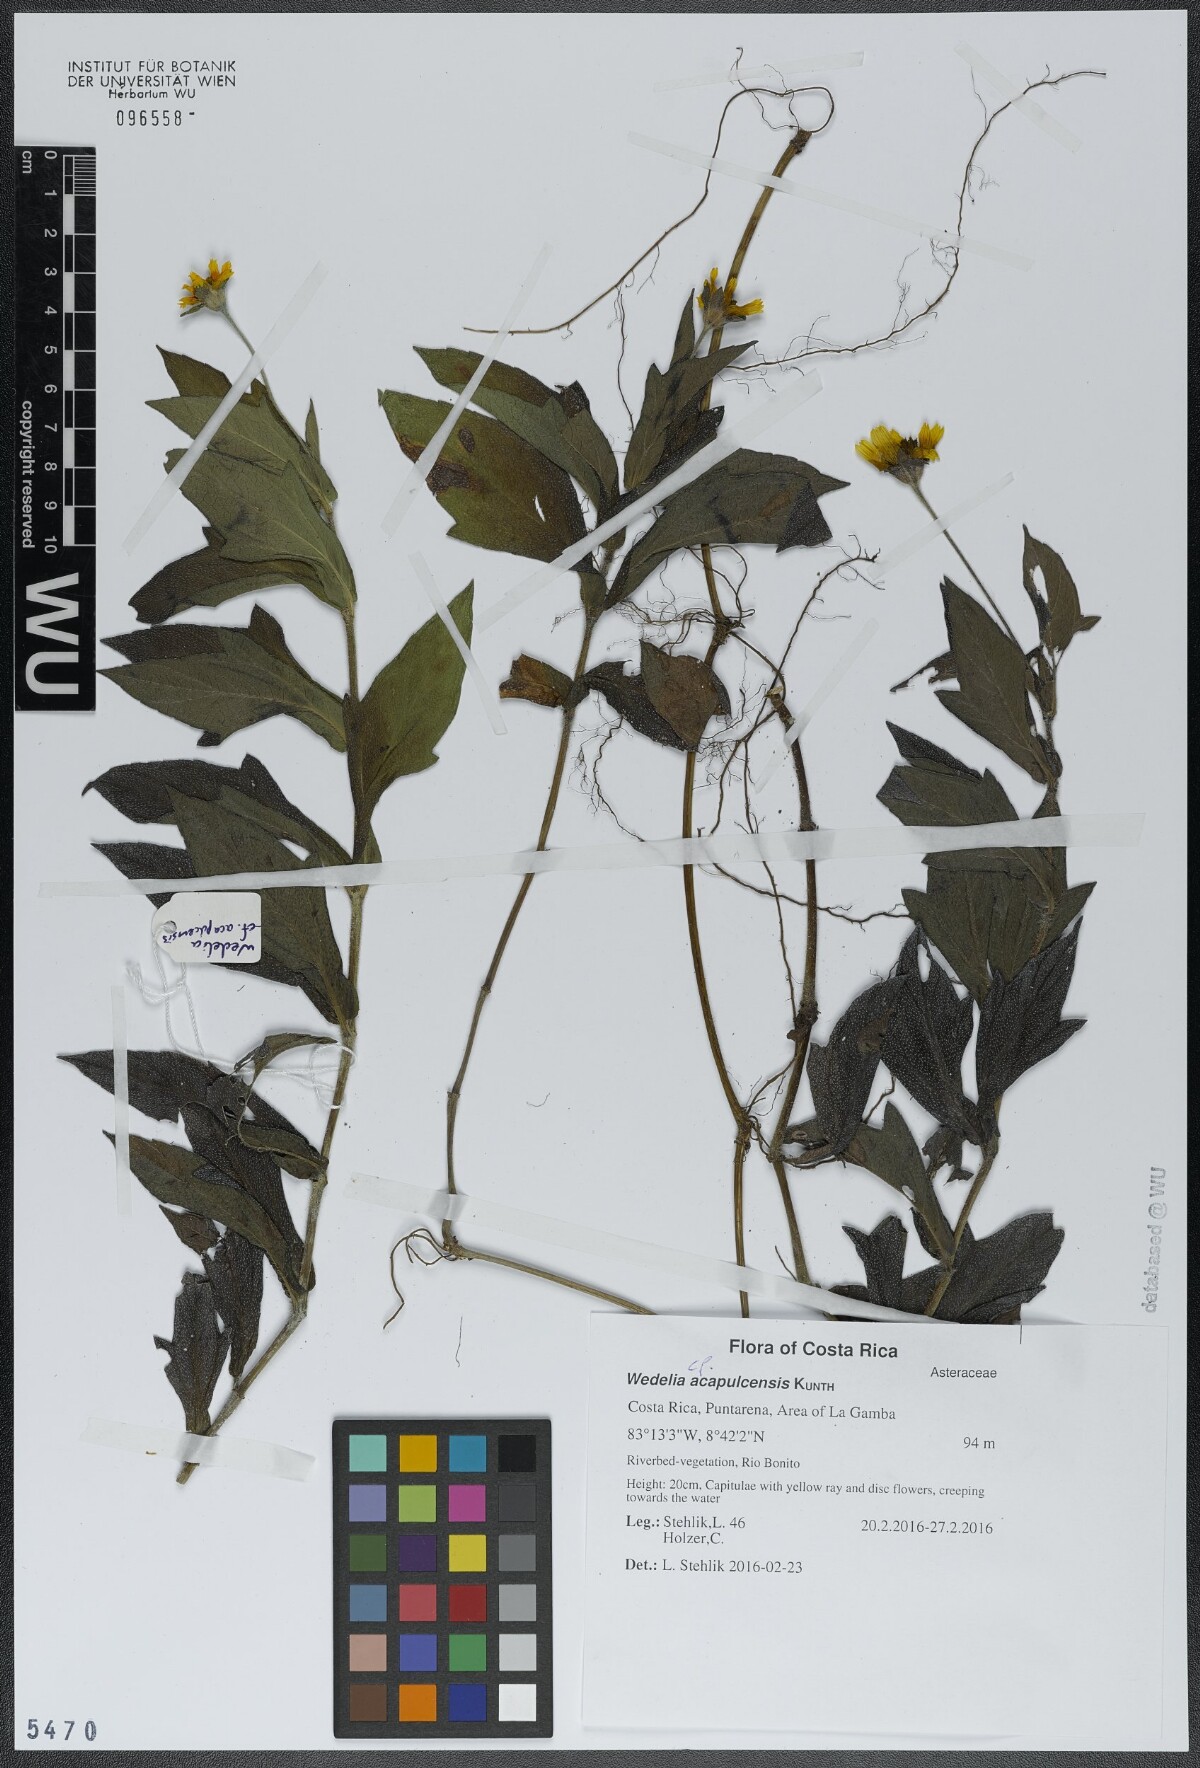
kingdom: Plantae
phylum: Tracheophyta
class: Magnoliopsida
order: Asterales
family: Asteraceae
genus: Wedelia
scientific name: Wedelia acapulcensis
